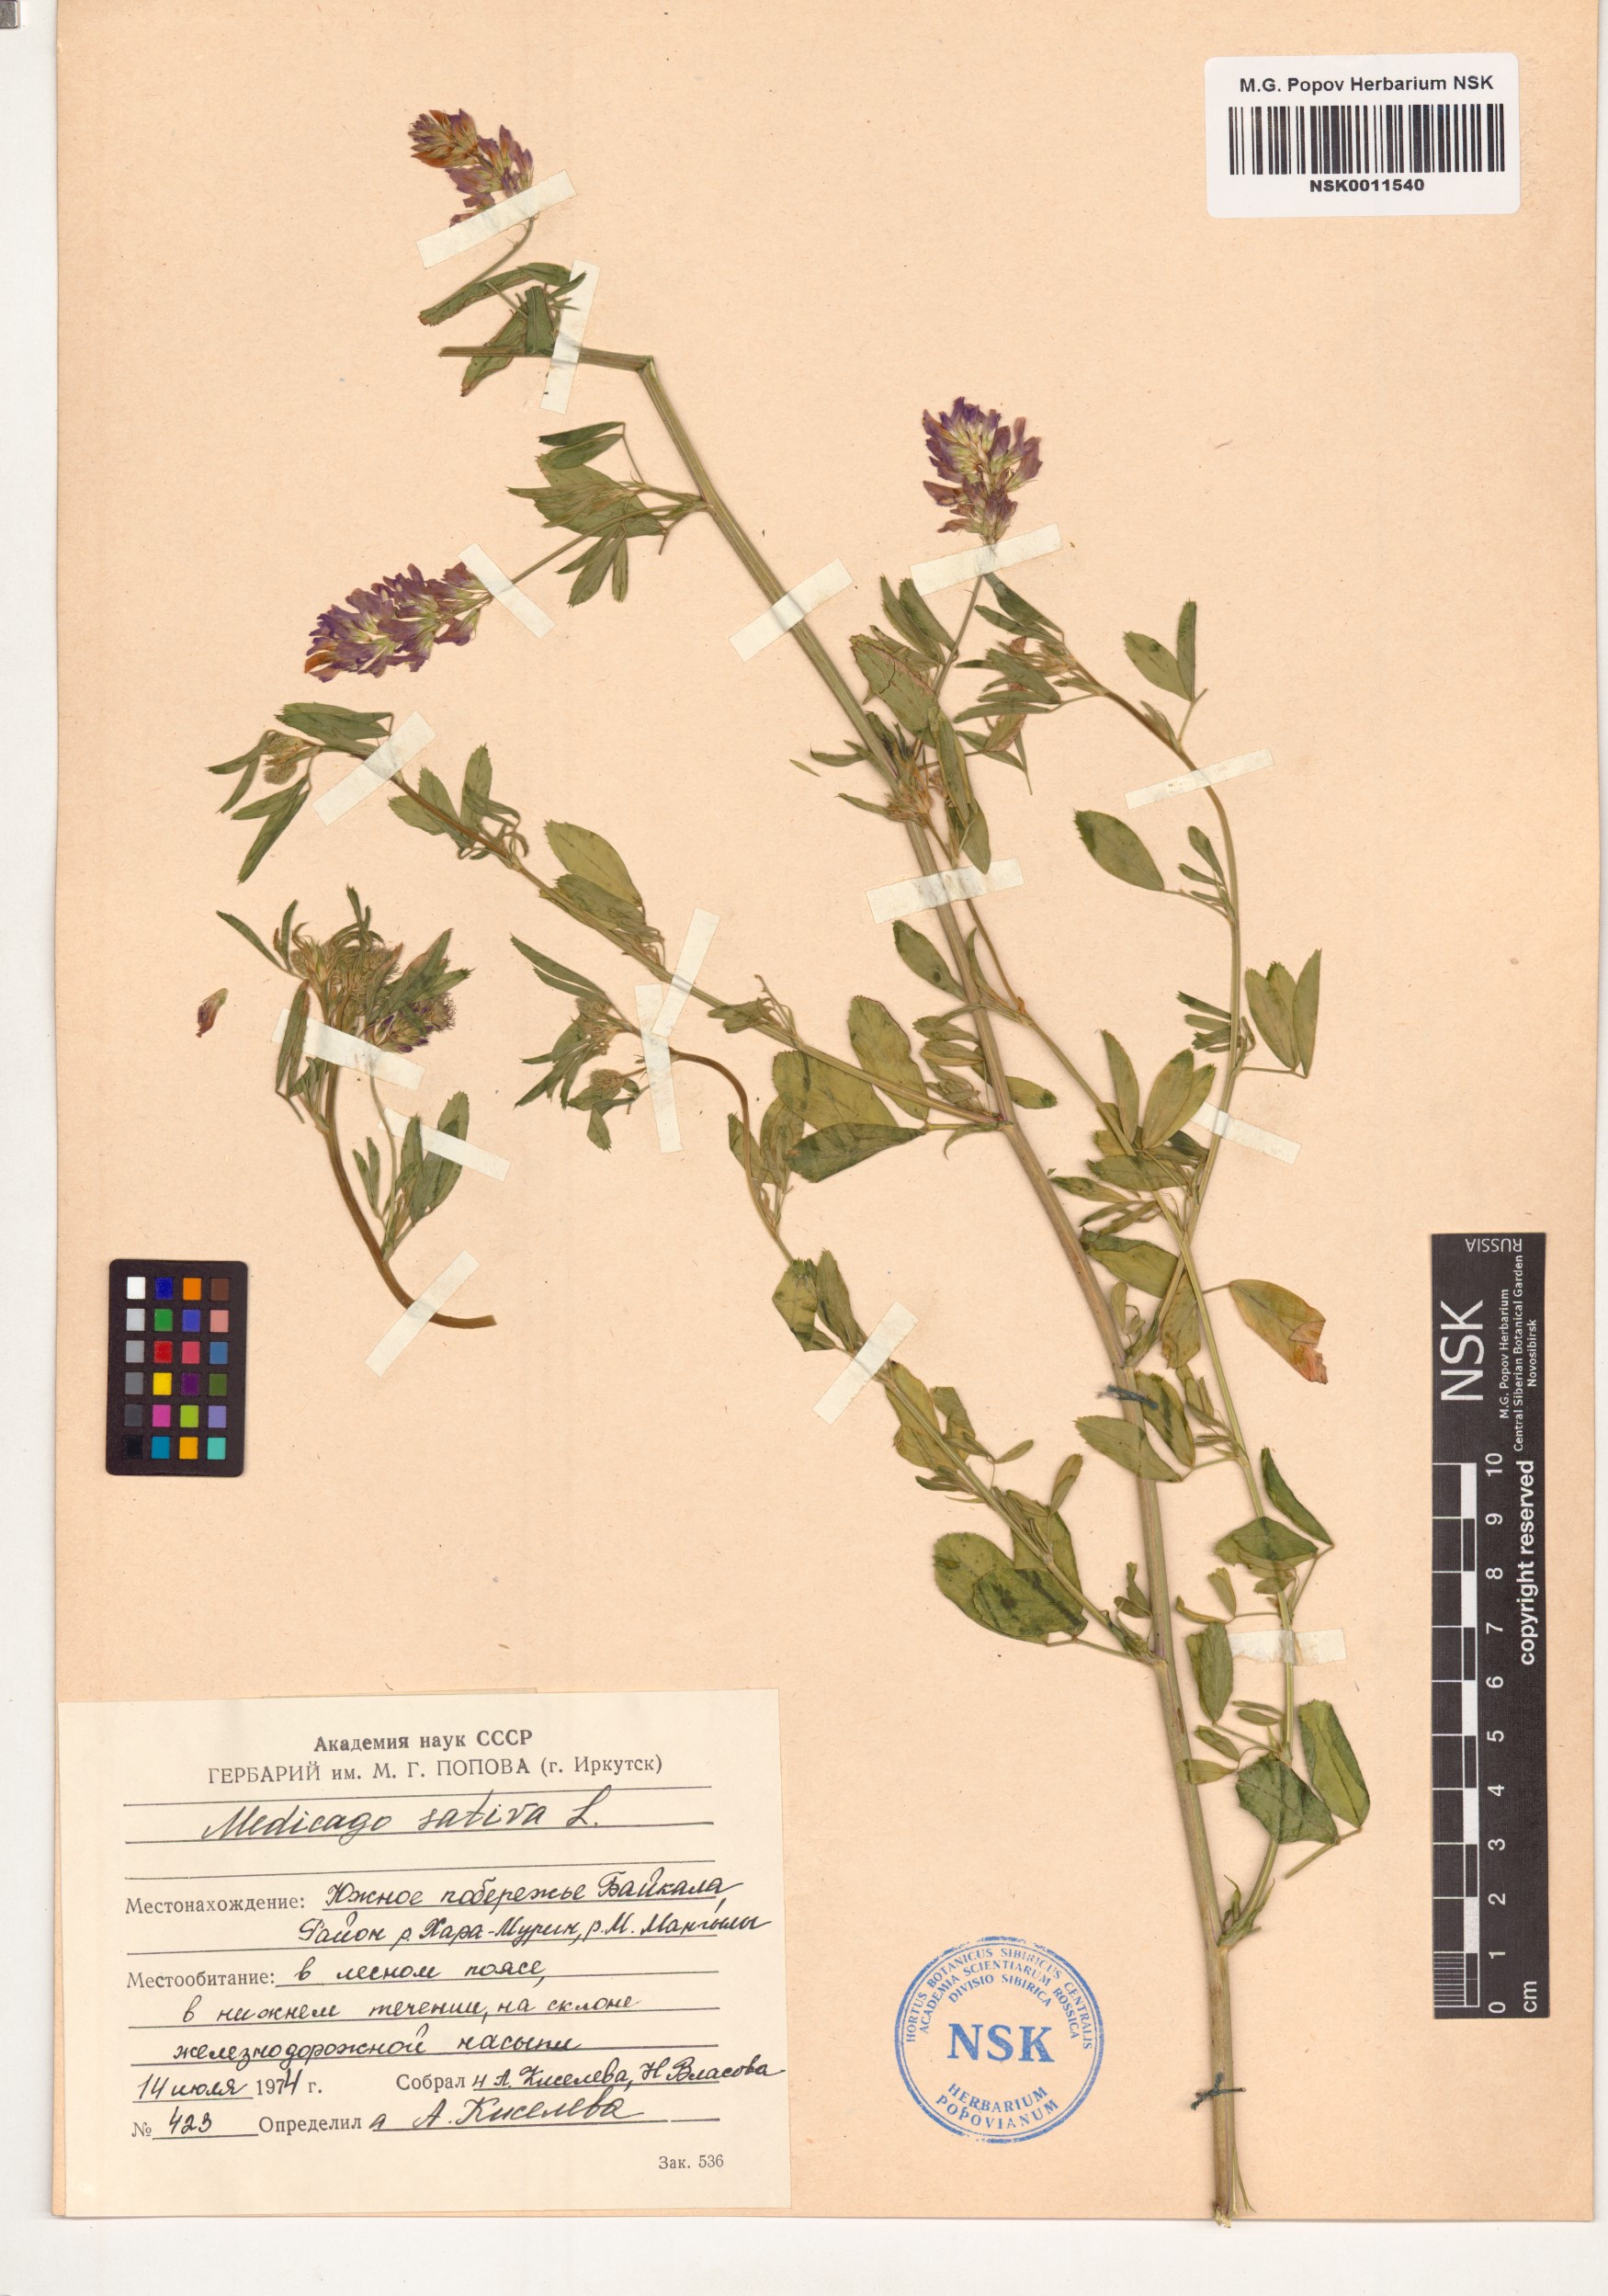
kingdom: Plantae
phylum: Tracheophyta
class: Magnoliopsida
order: Fabales
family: Fabaceae
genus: Medicago
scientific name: Medicago sativa
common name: Alfalfa
